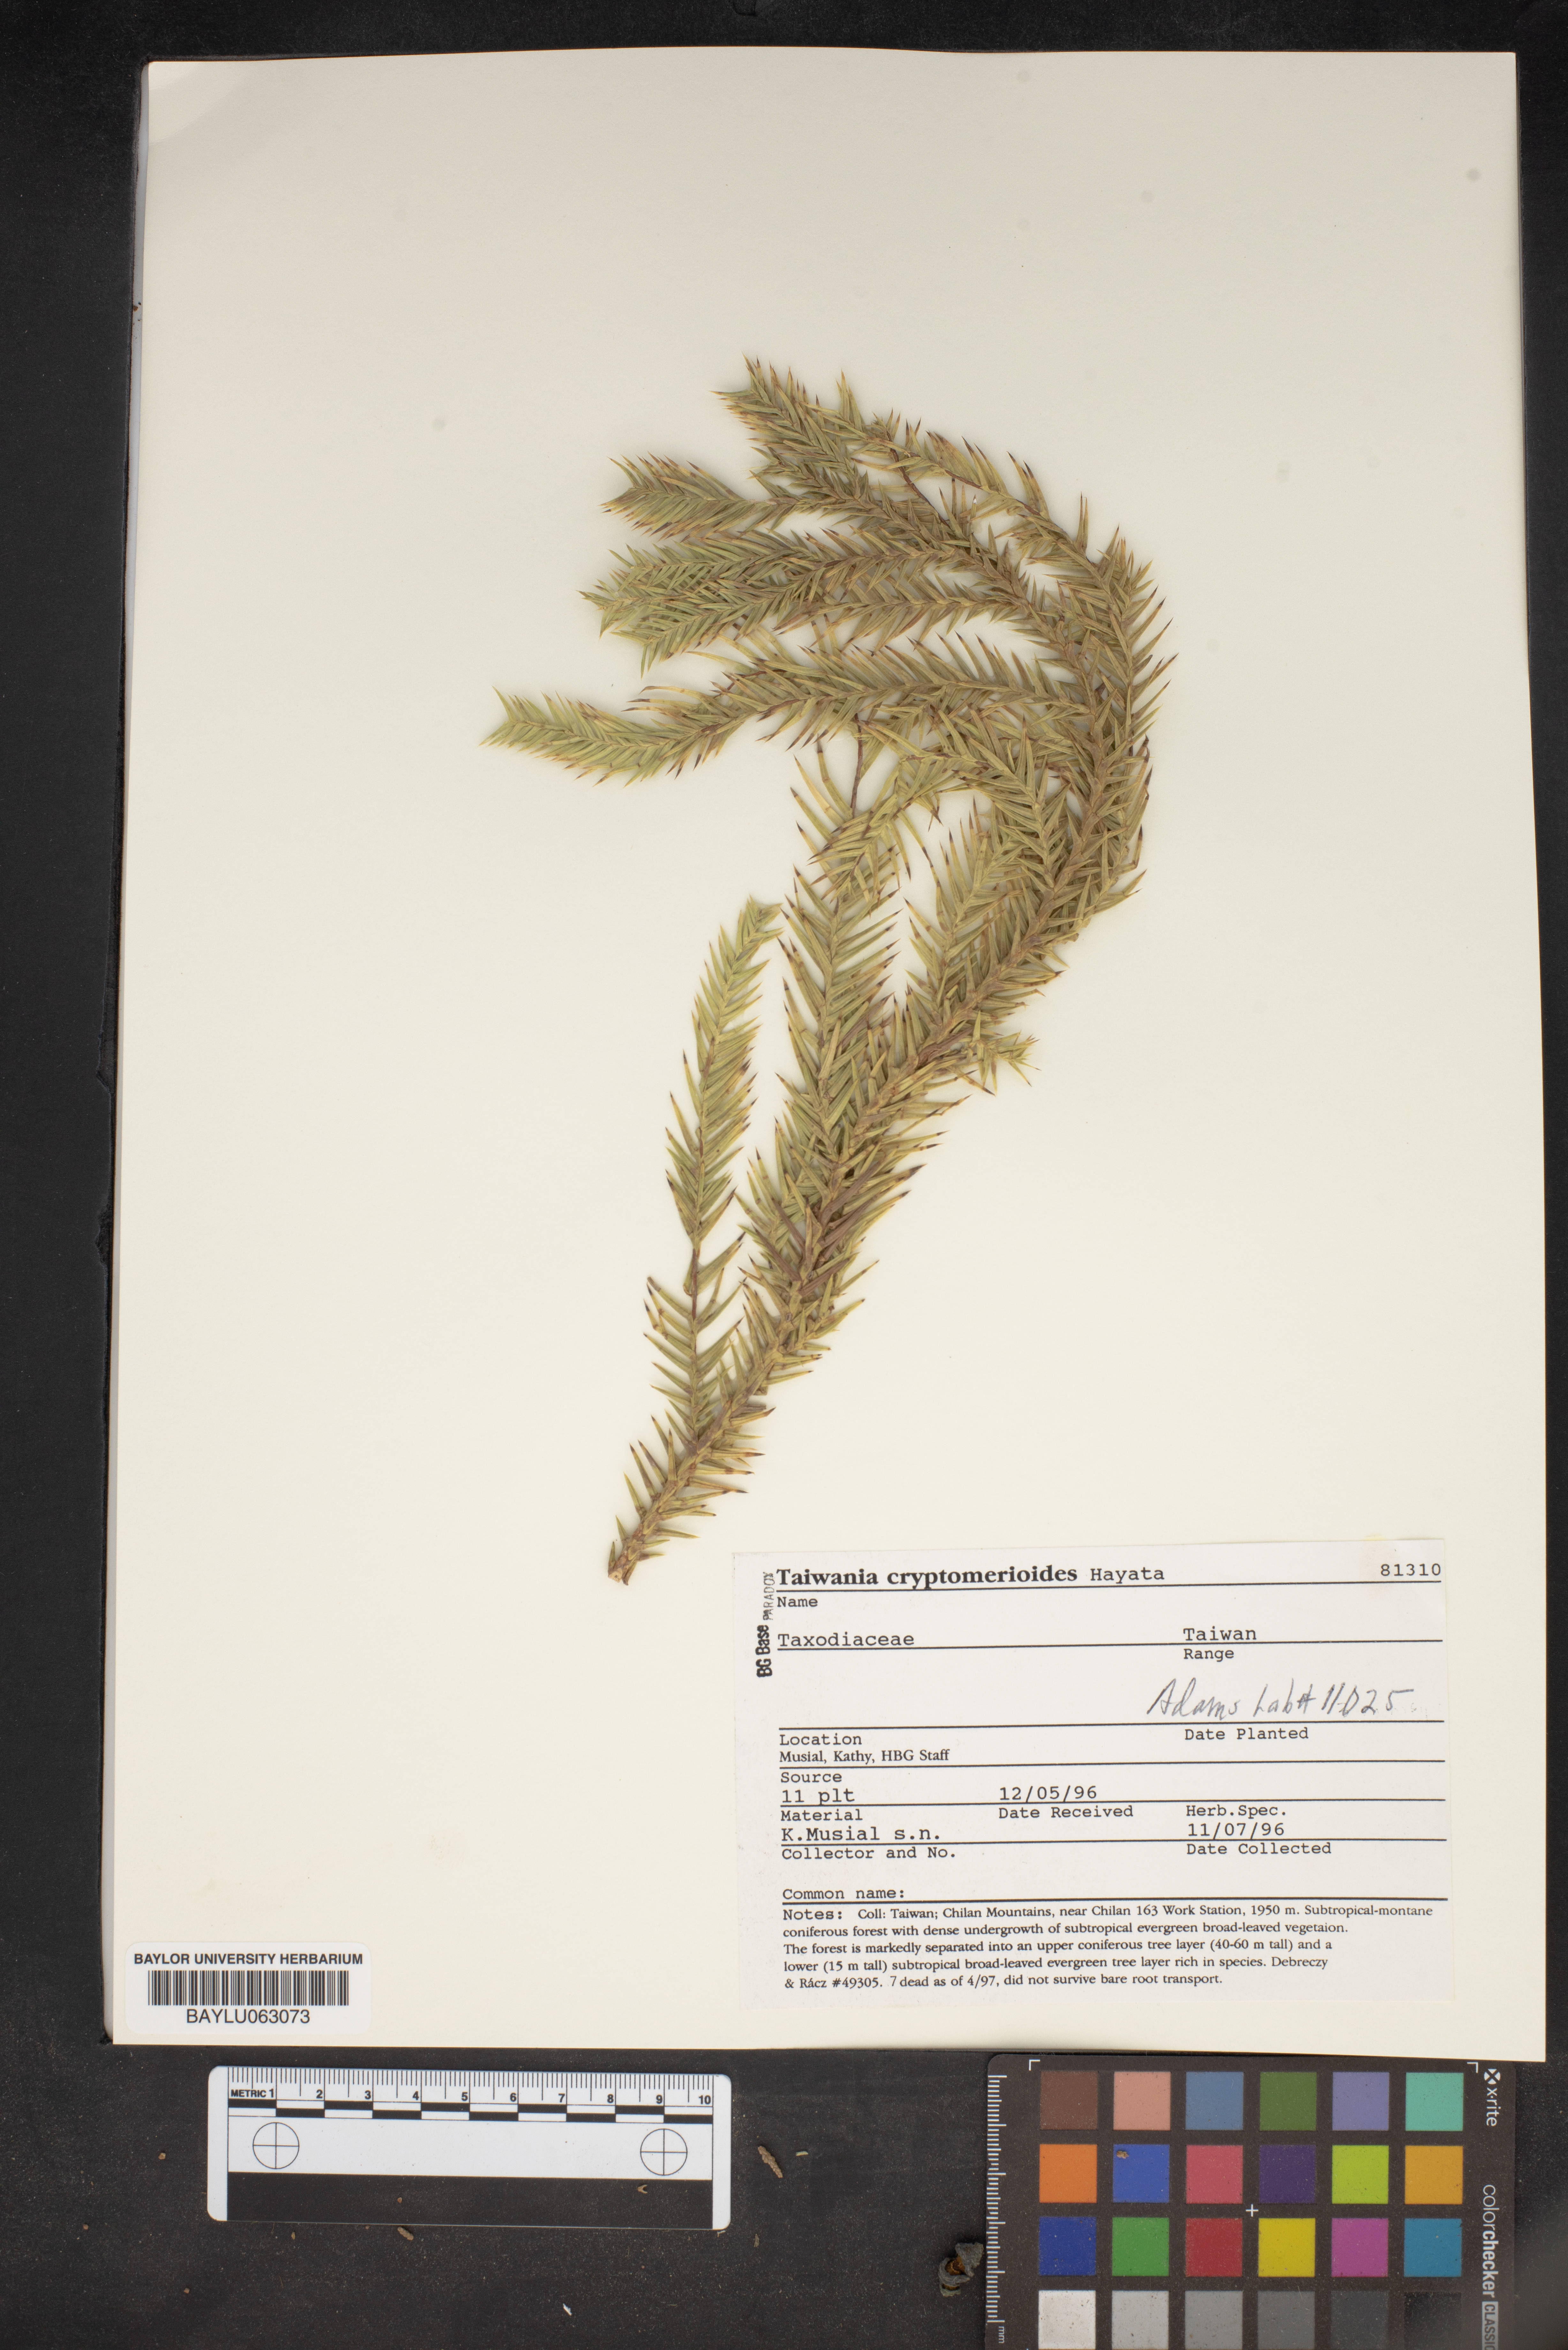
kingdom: Plantae
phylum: Tracheophyta
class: Pinopsida
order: Pinales
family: Cupressaceae
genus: Taiwania
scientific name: Taiwania cryptomerioides
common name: Coffin tree
